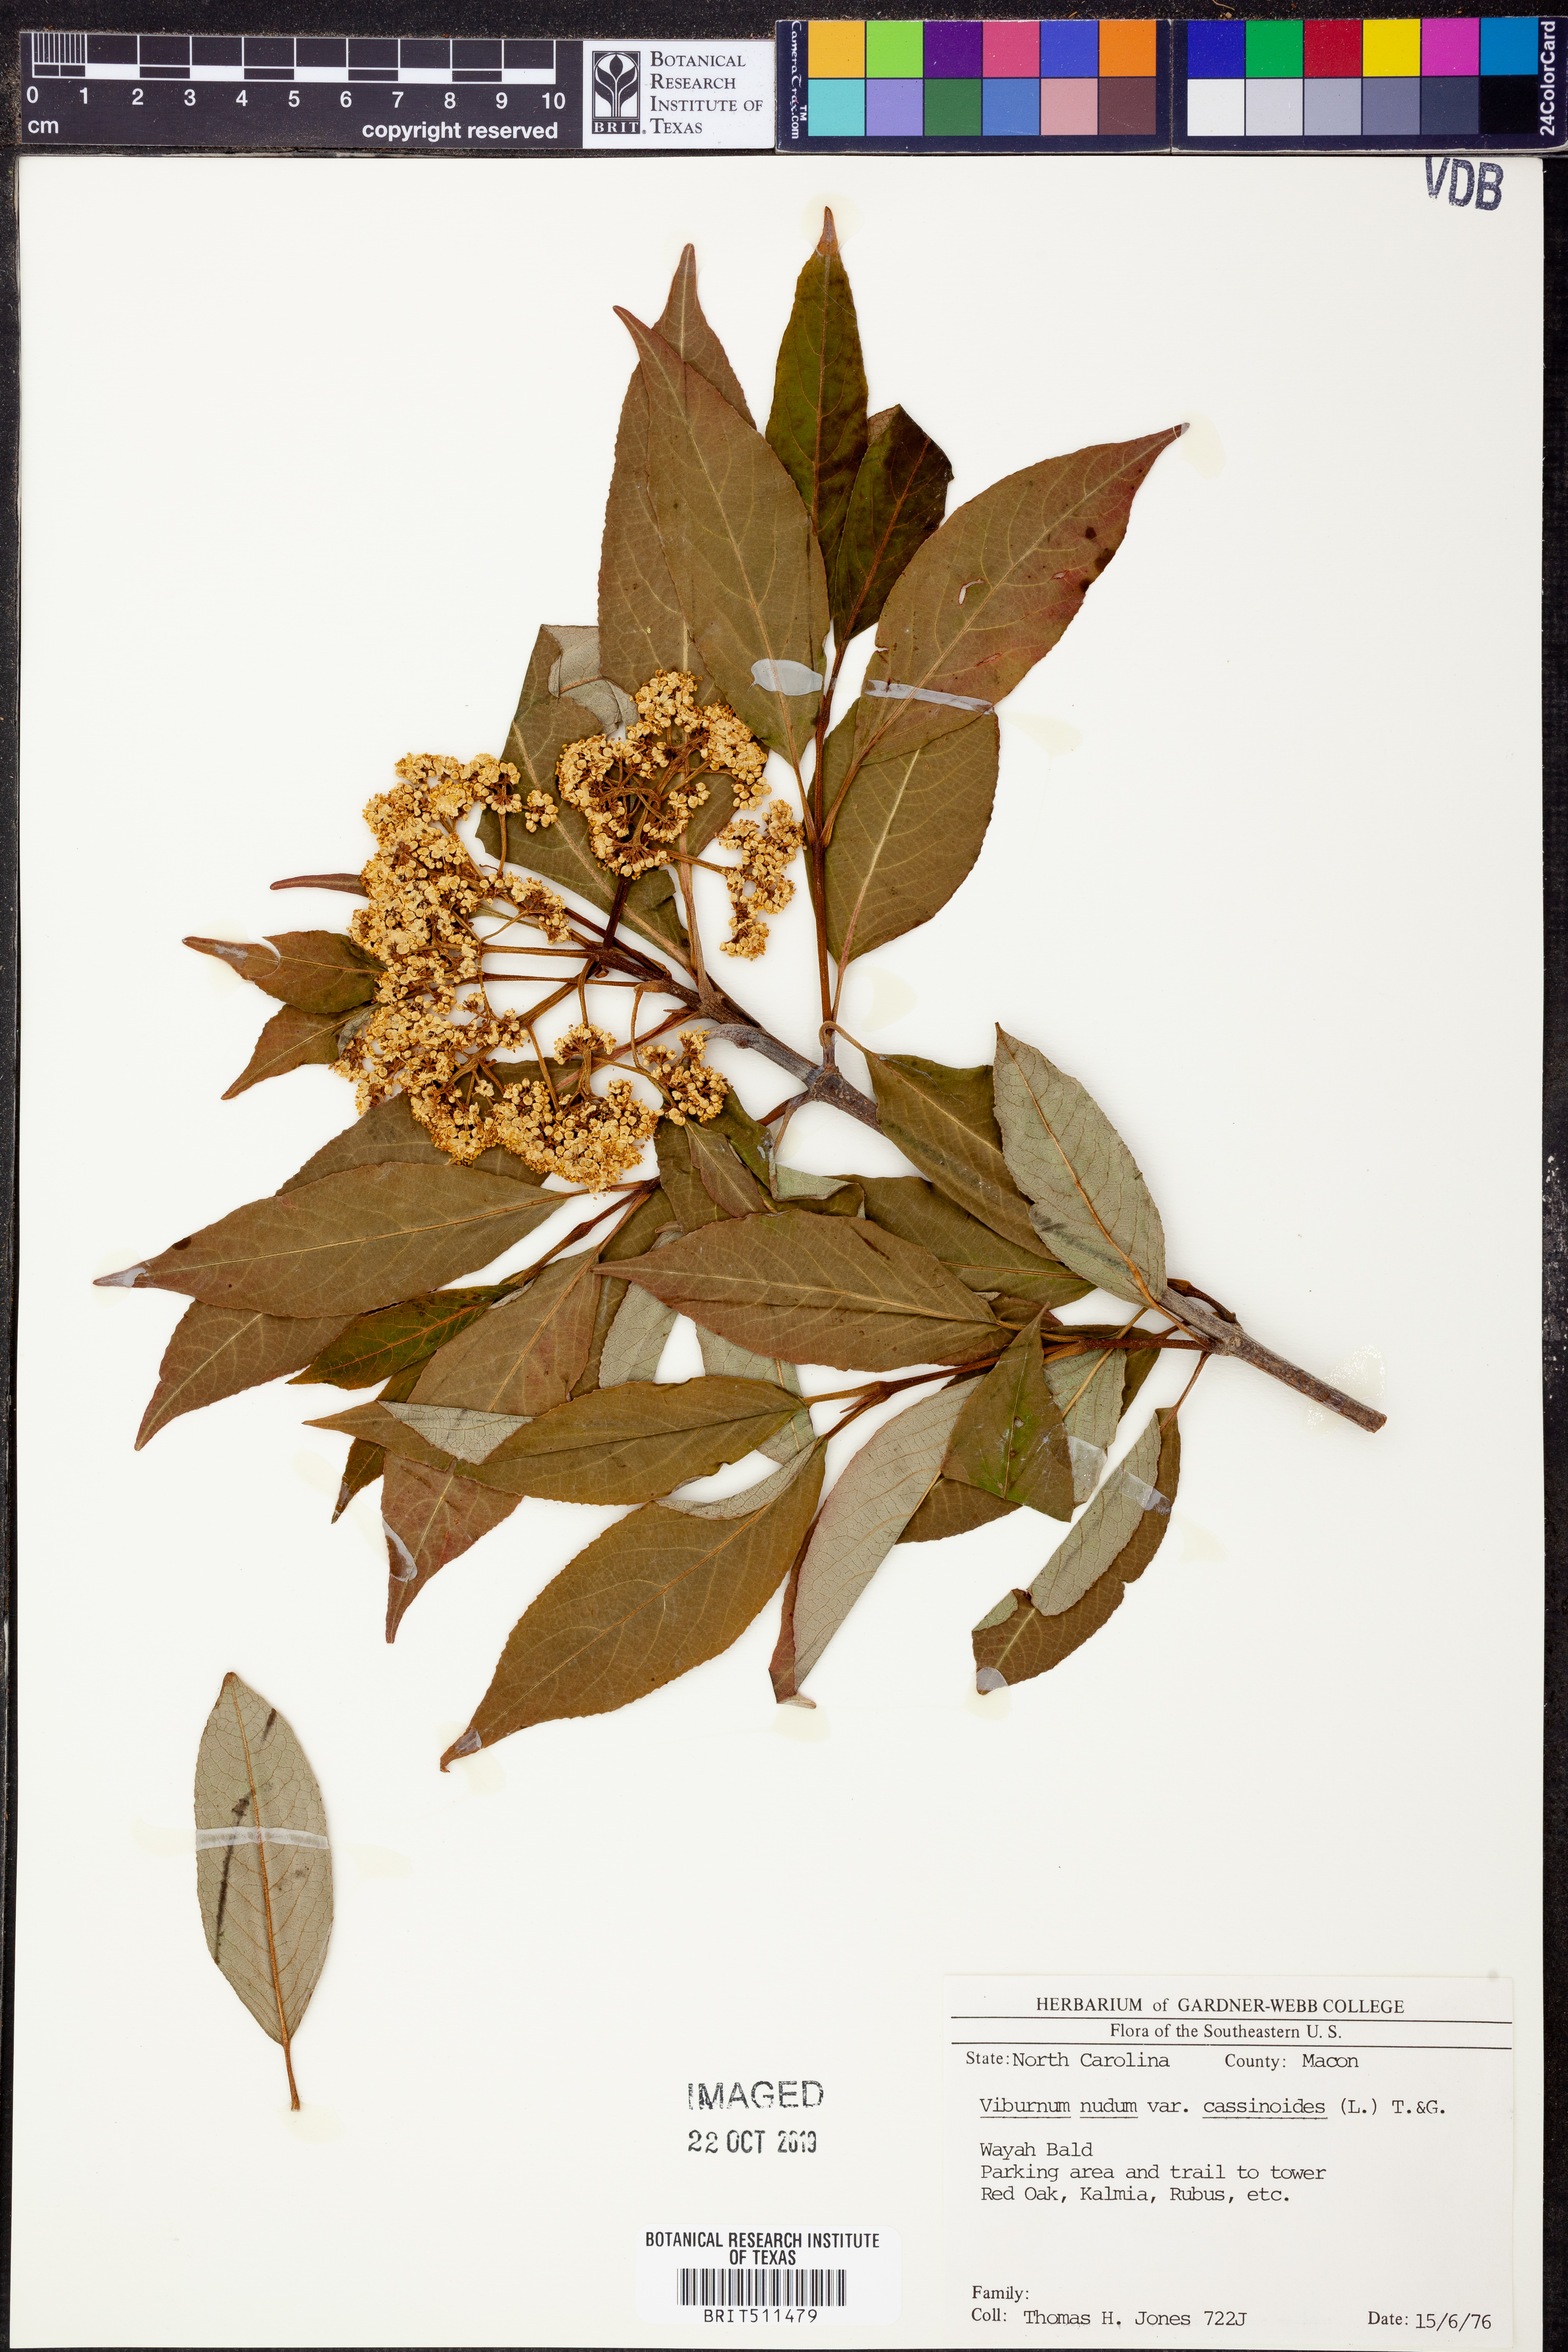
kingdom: Plantae
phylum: Tracheophyta
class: Magnoliopsida
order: Dipsacales
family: Viburnaceae
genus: Viburnum
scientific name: Viburnum cassinoides
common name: Swamp haw
